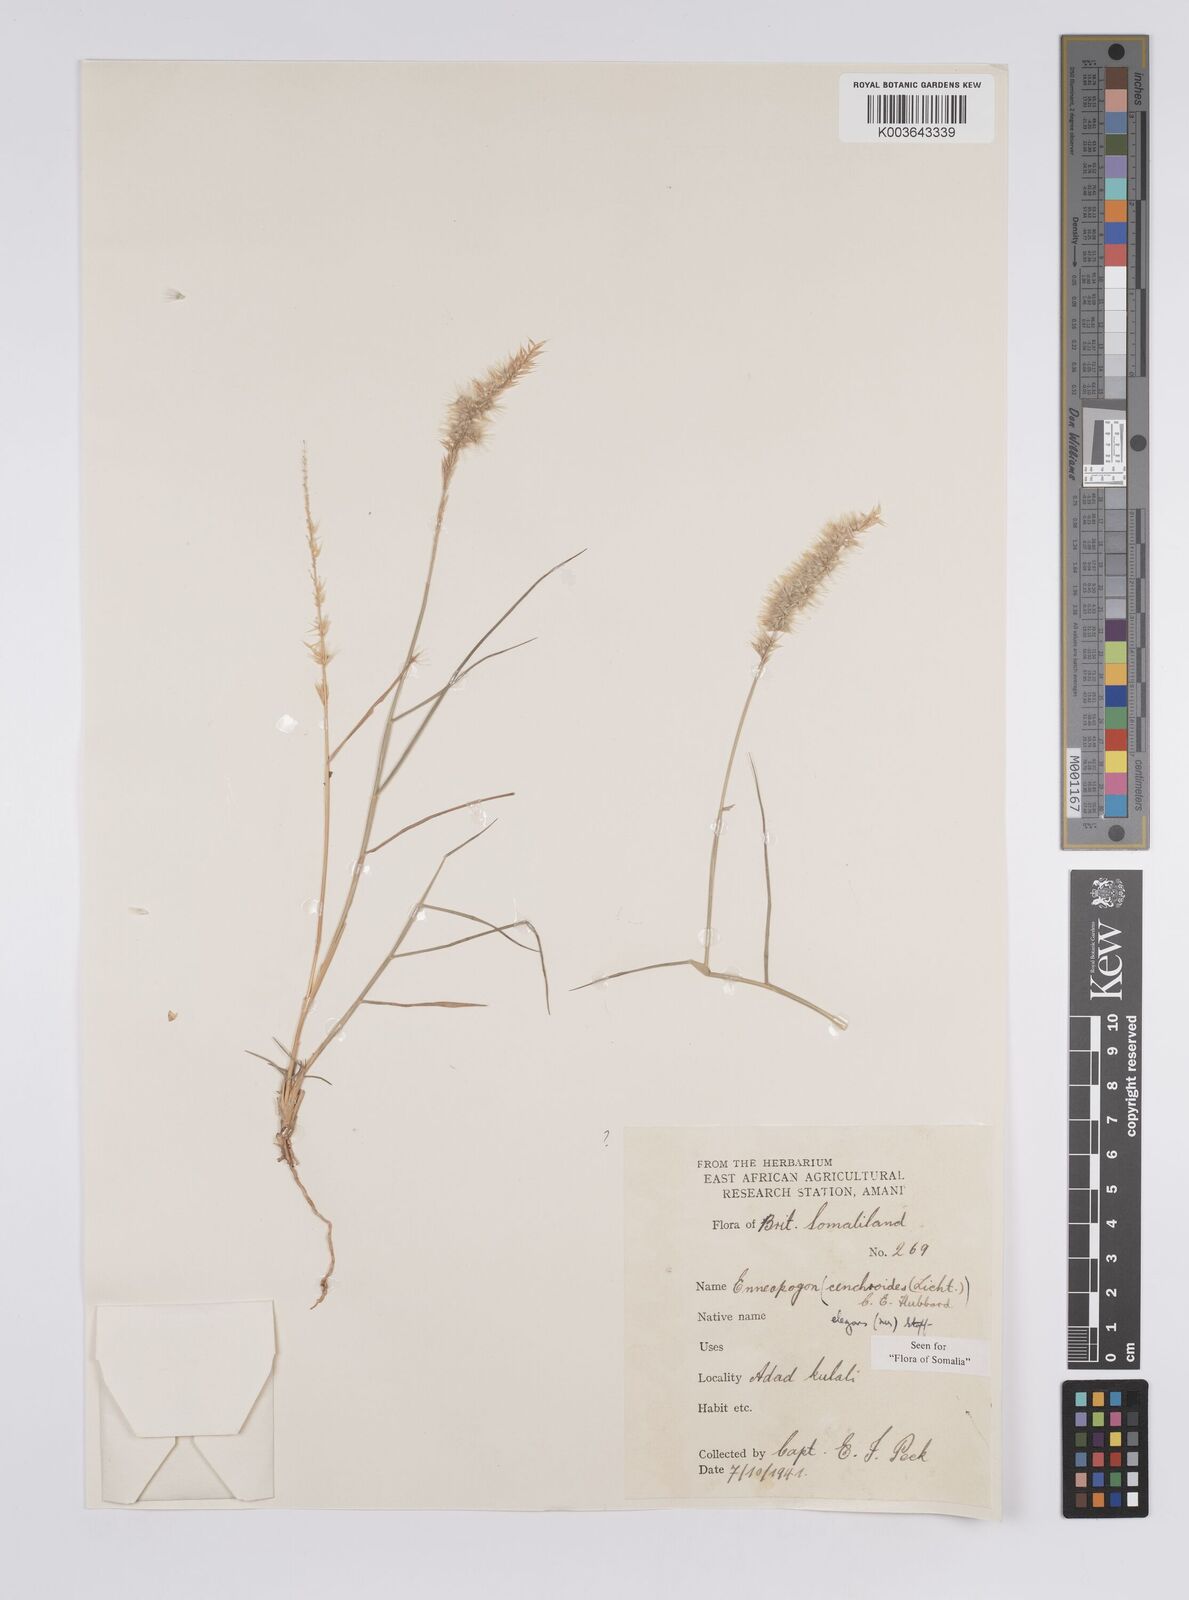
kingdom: Plantae
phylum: Tracheophyta
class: Liliopsida
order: Poales
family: Poaceae
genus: Enneapogon
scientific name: Enneapogon persicus
